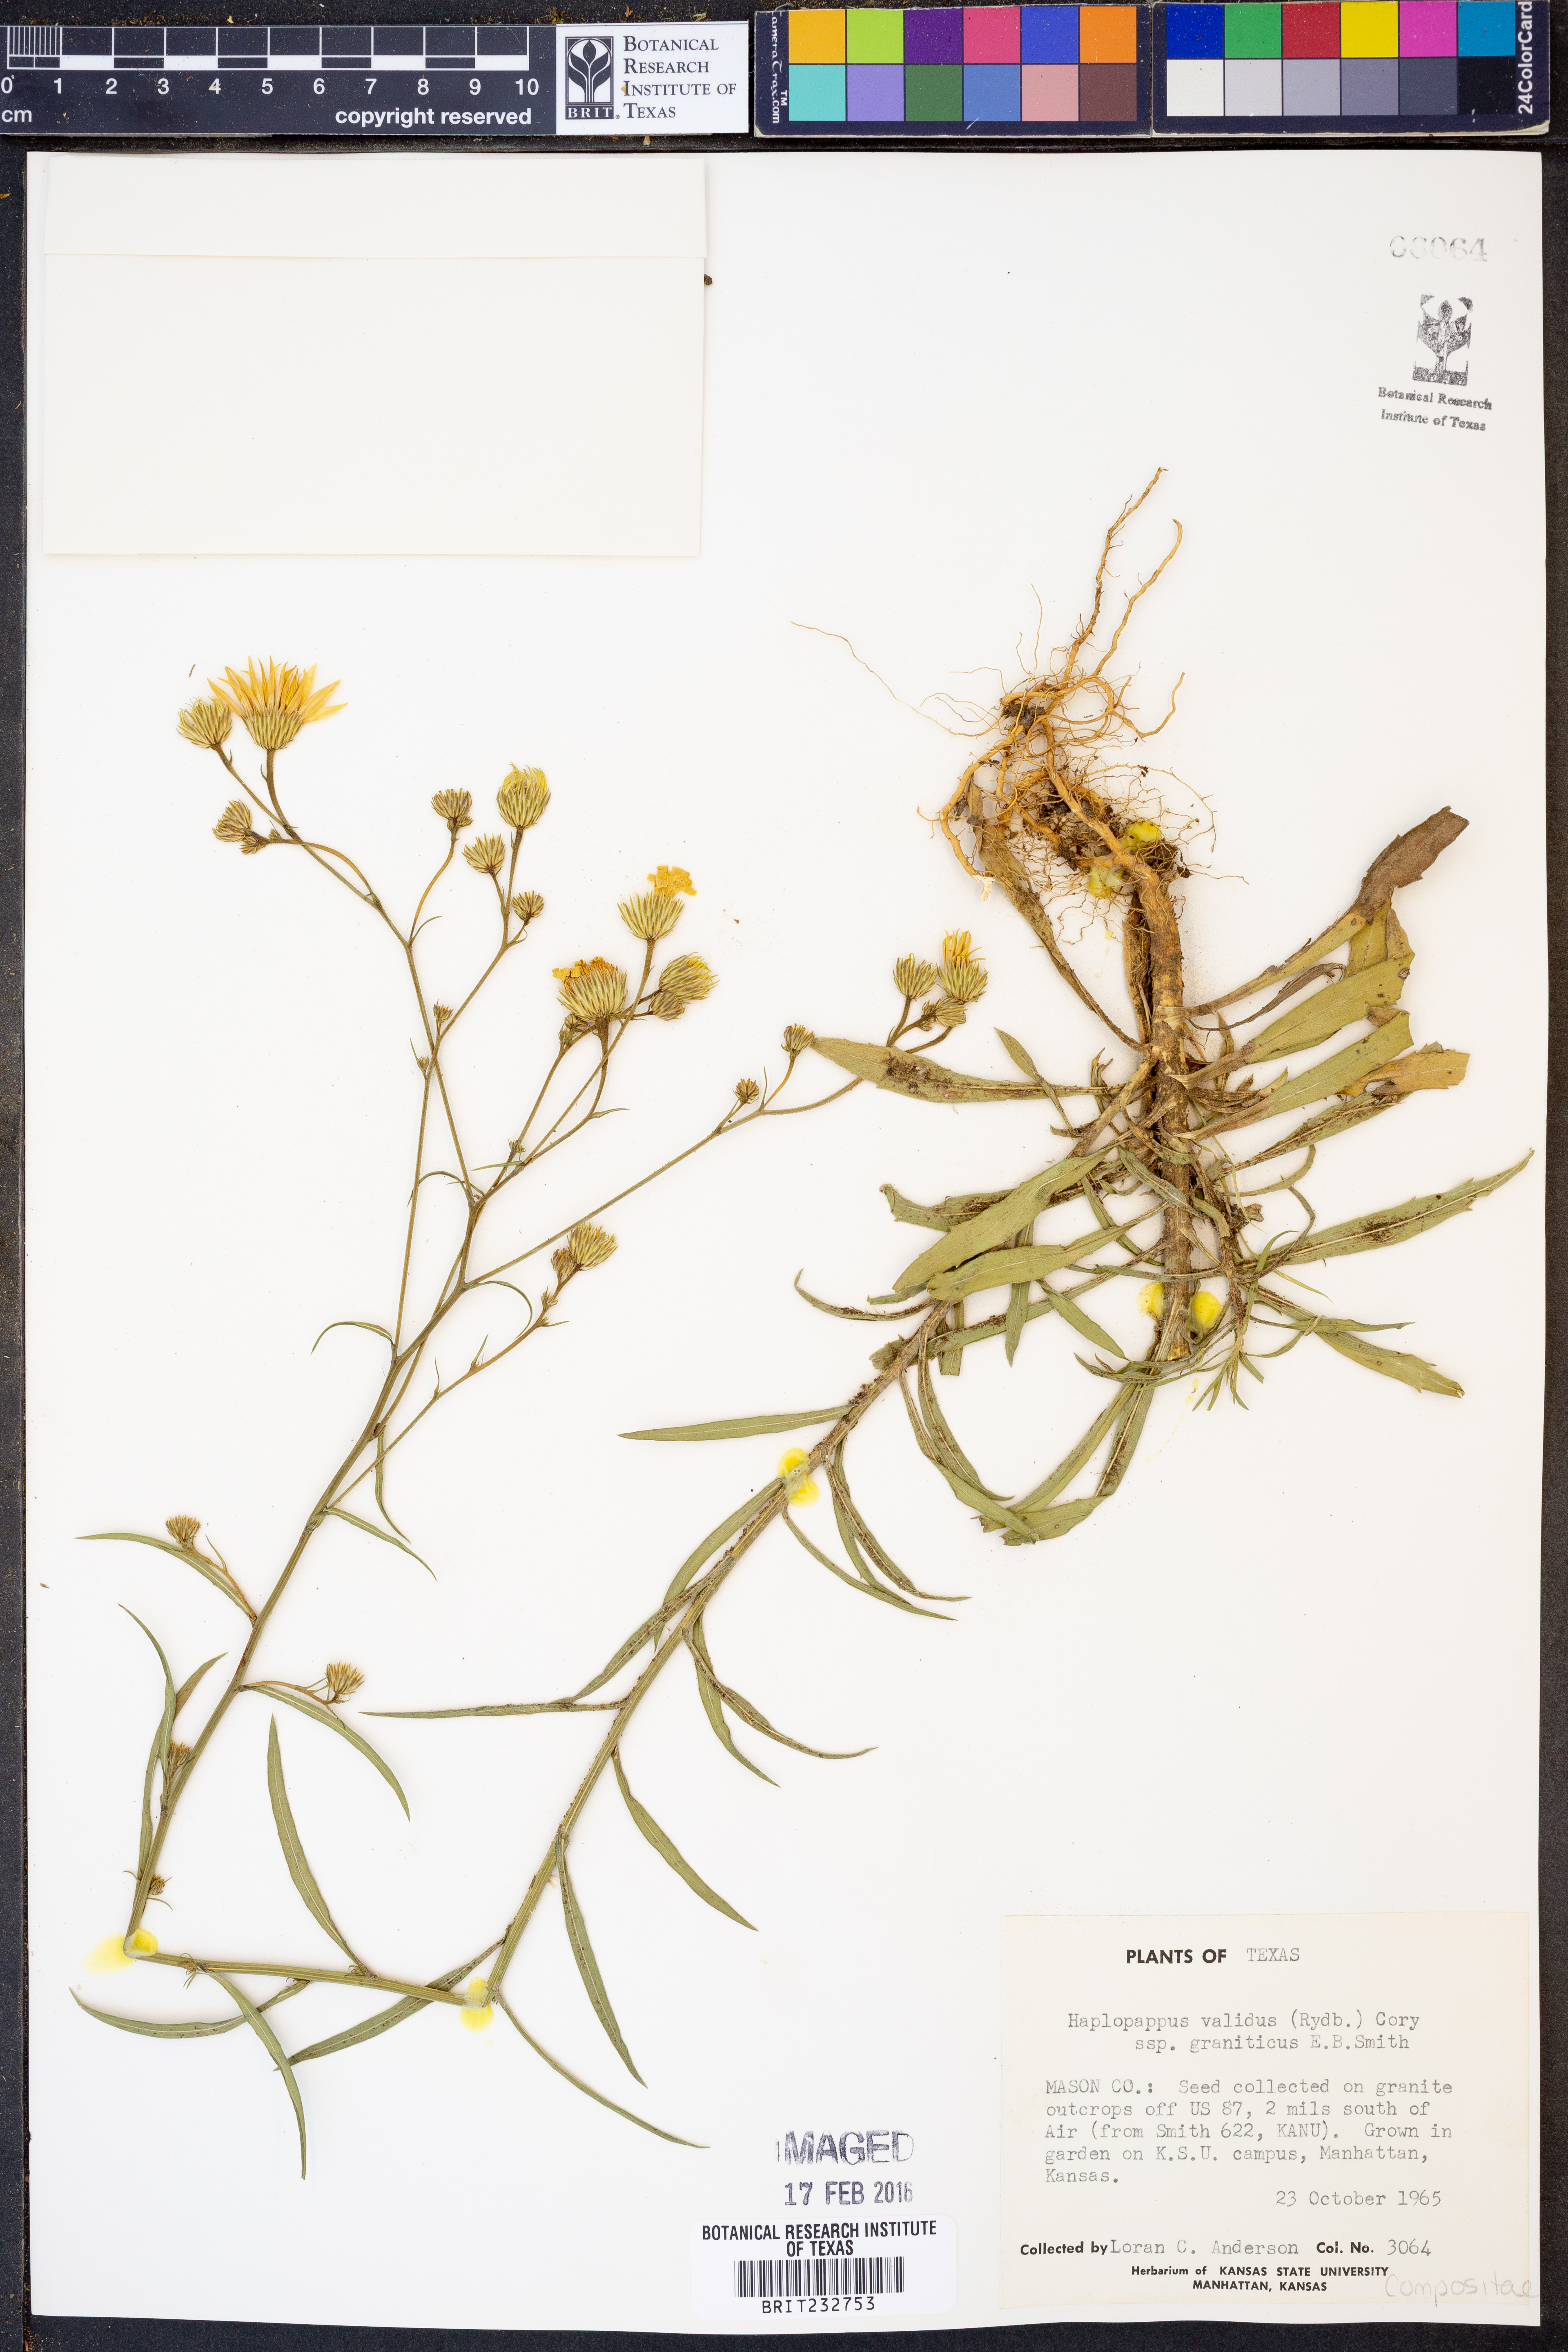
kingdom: Plantae
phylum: Tracheophyta
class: Magnoliopsida
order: Asterales
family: Asteraceae
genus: Croptilon
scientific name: Croptilon hookerianum
